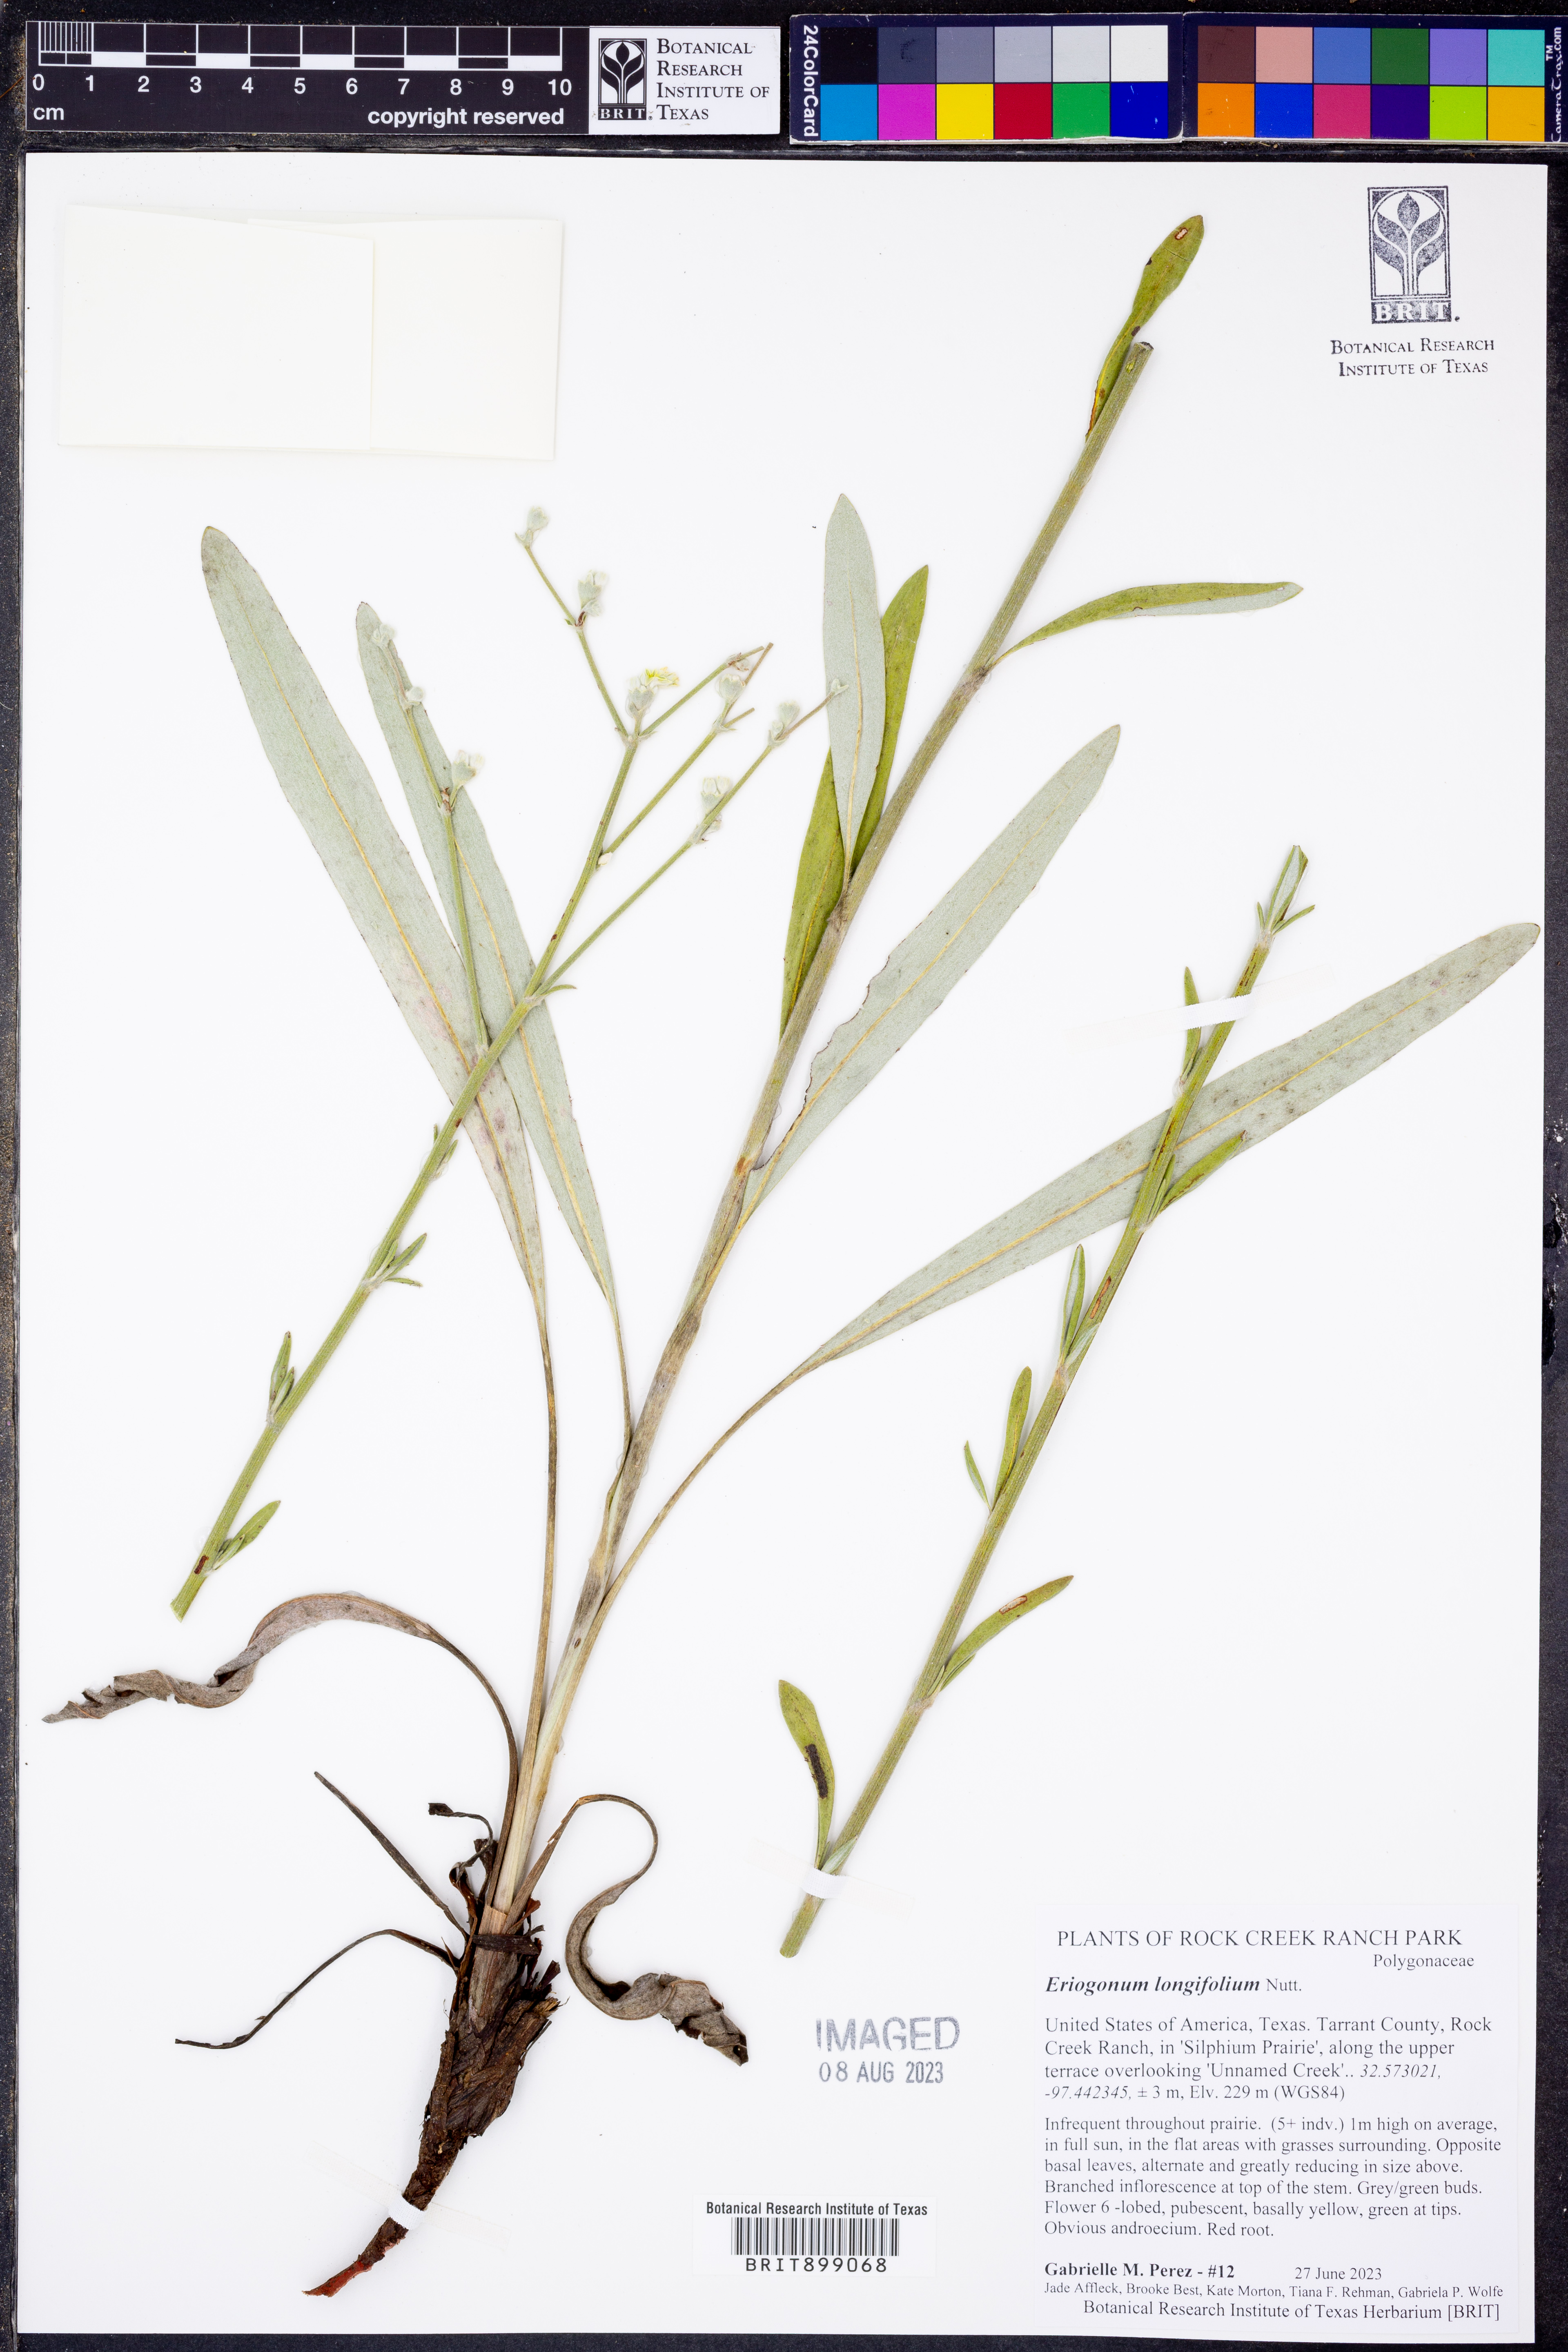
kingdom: Plantae
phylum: Tracheophyta
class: Magnoliopsida
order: Caryophyllales
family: Polygonaceae
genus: Eriogonum
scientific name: Eriogonum longifolium
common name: Longleaf wild buckwheat
